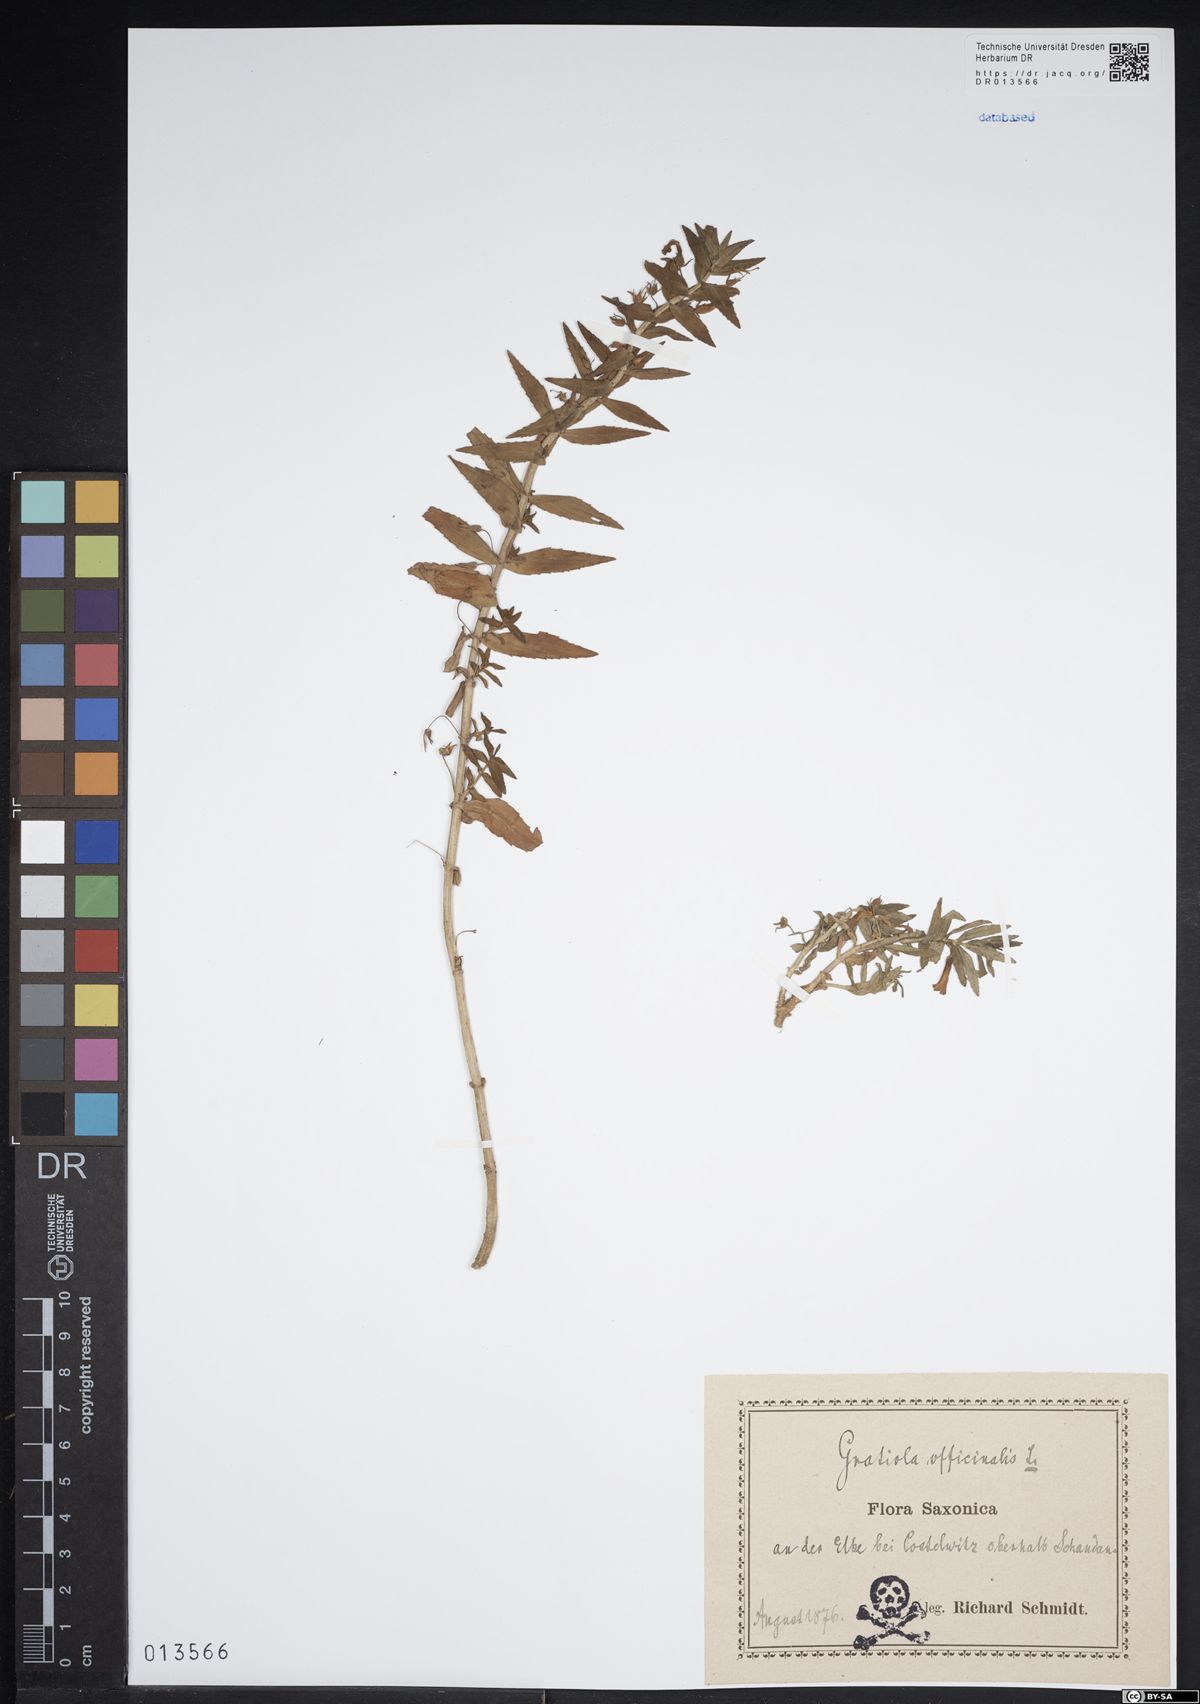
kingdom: Plantae
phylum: Tracheophyta
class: Magnoliopsida
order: Lamiales
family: Plantaginaceae
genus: Gratiola
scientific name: Gratiola officinalis
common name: Gratiola
